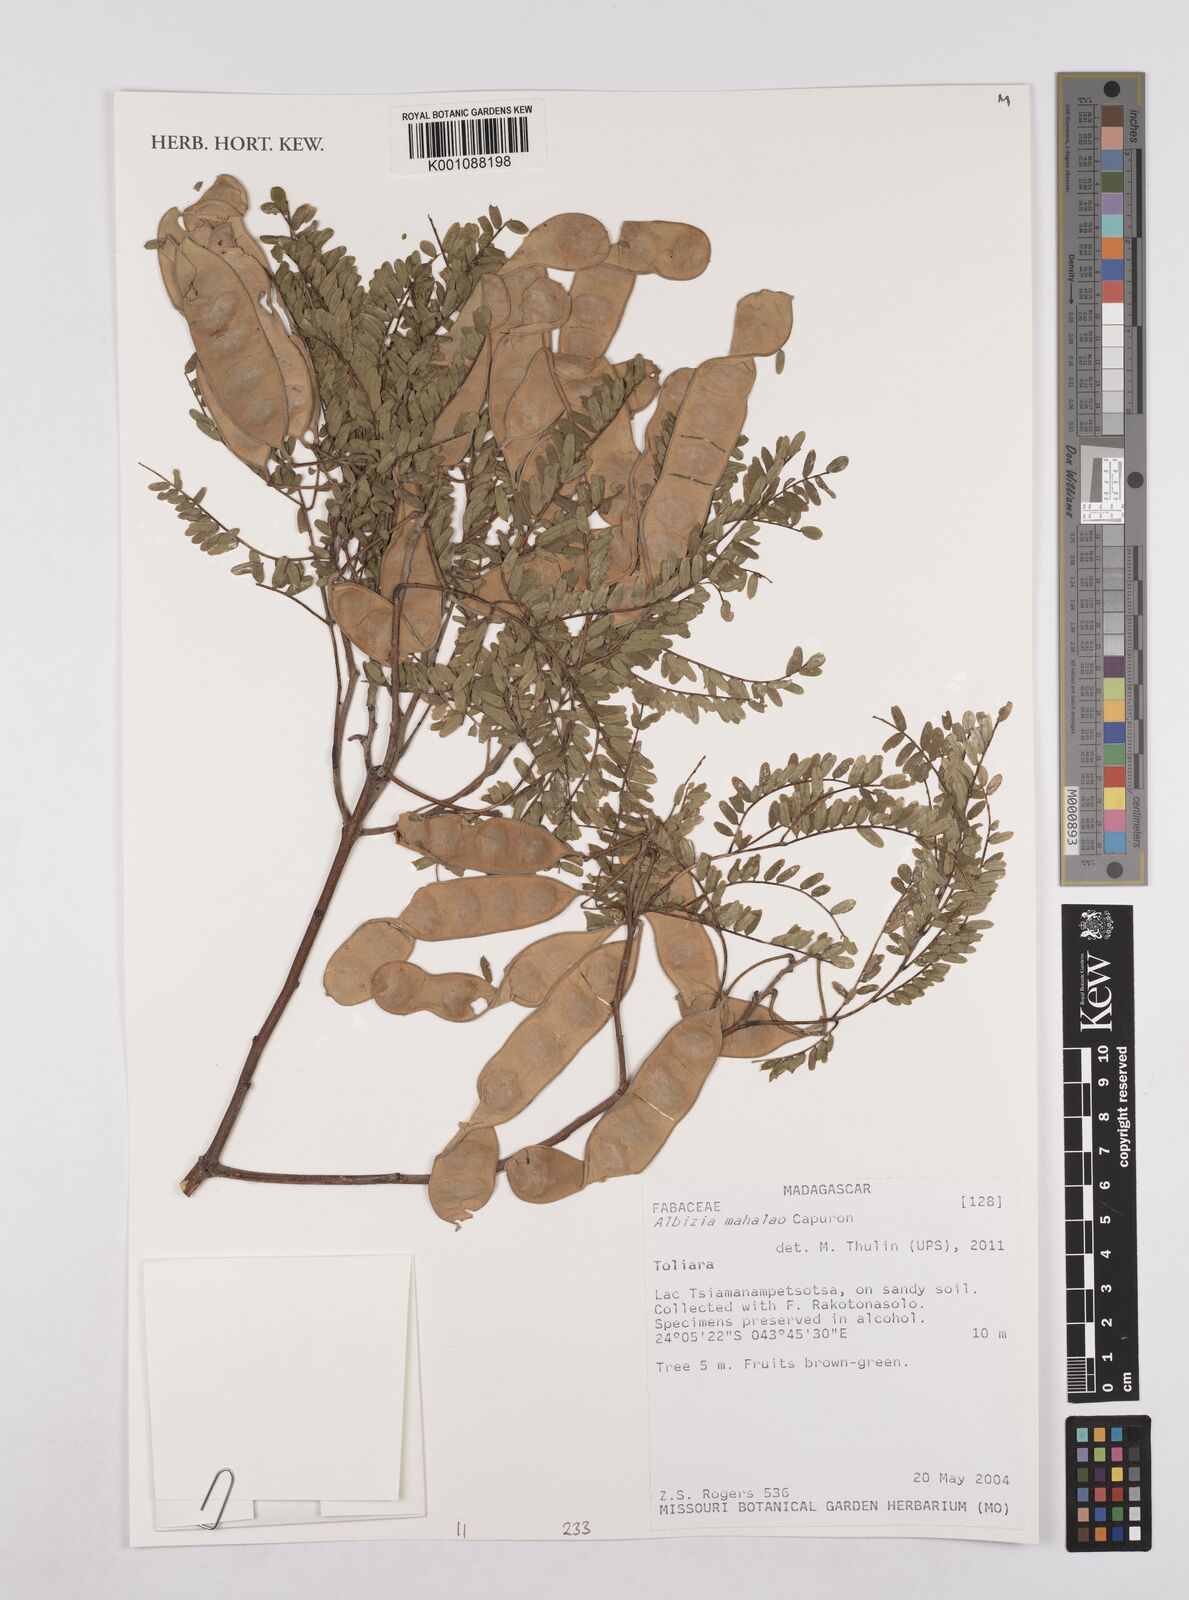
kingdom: Plantae
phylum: Tracheophyta
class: Magnoliopsida
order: Fabales
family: Fabaceae
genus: Albizia
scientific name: Albizia mahalao
